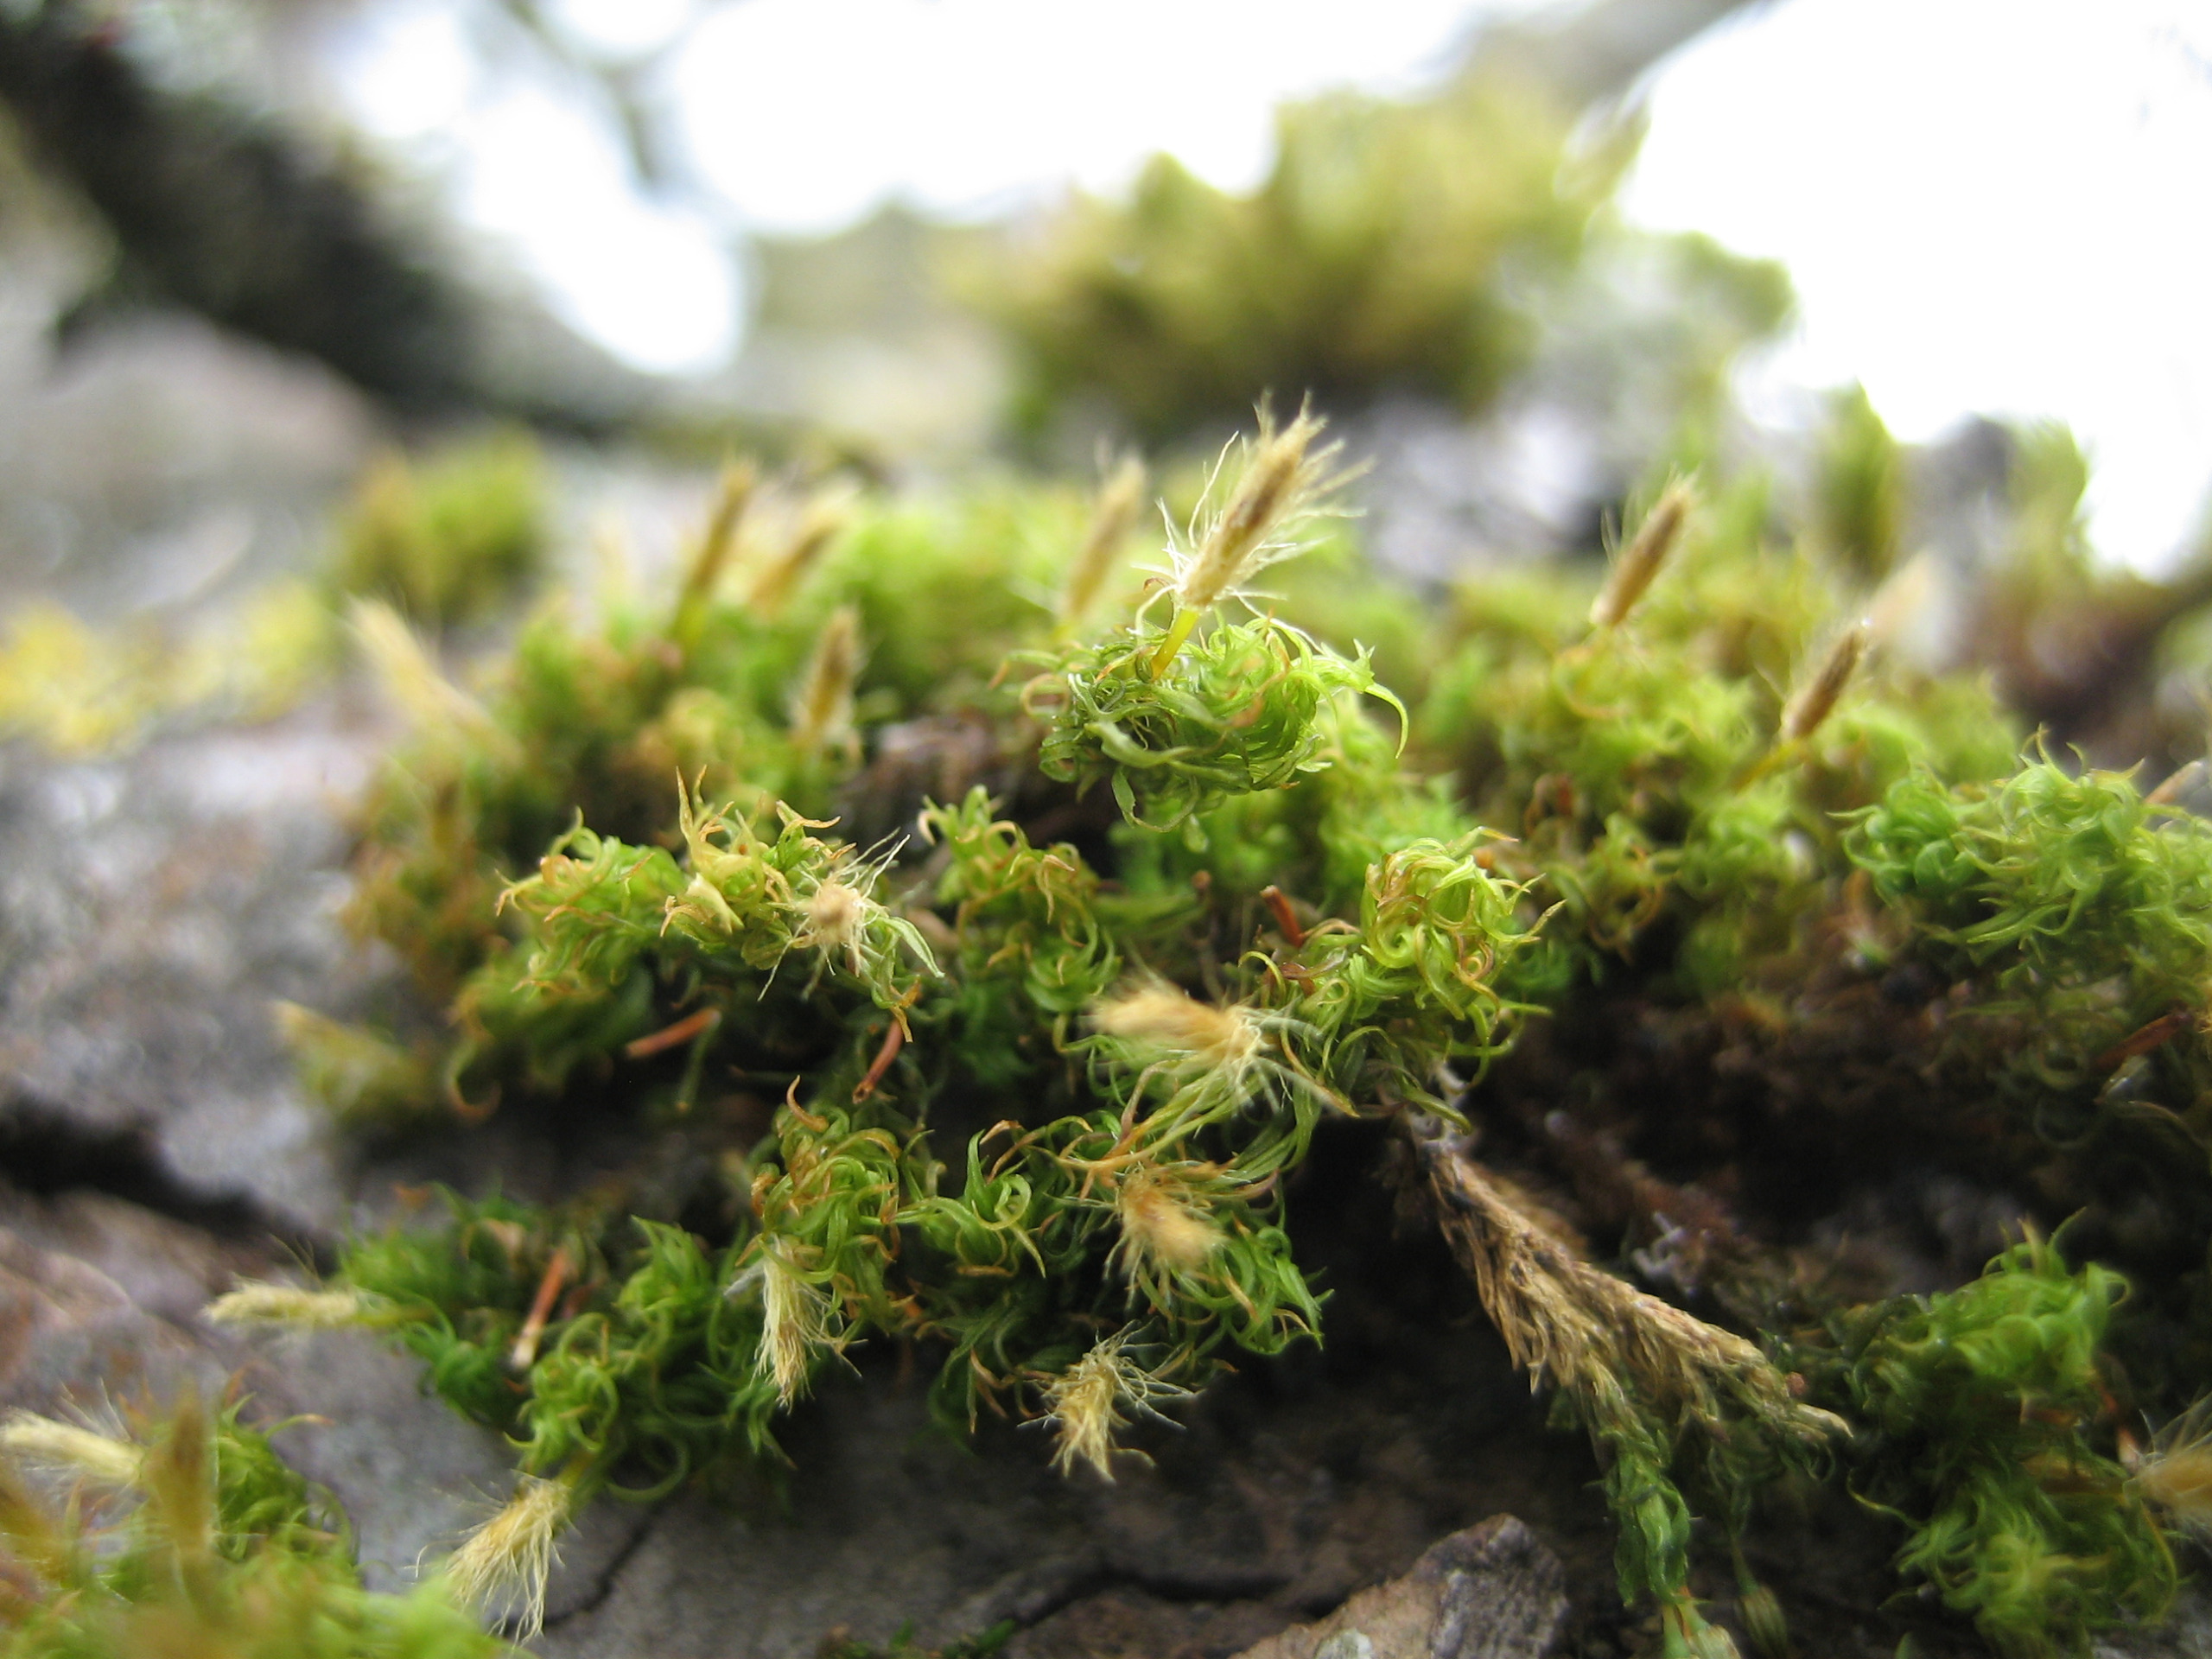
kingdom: Plantae
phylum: Bryophyta
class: Bryopsida
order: Orthotrichales
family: Orthotrichaceae
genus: Ulota
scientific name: Ulota
